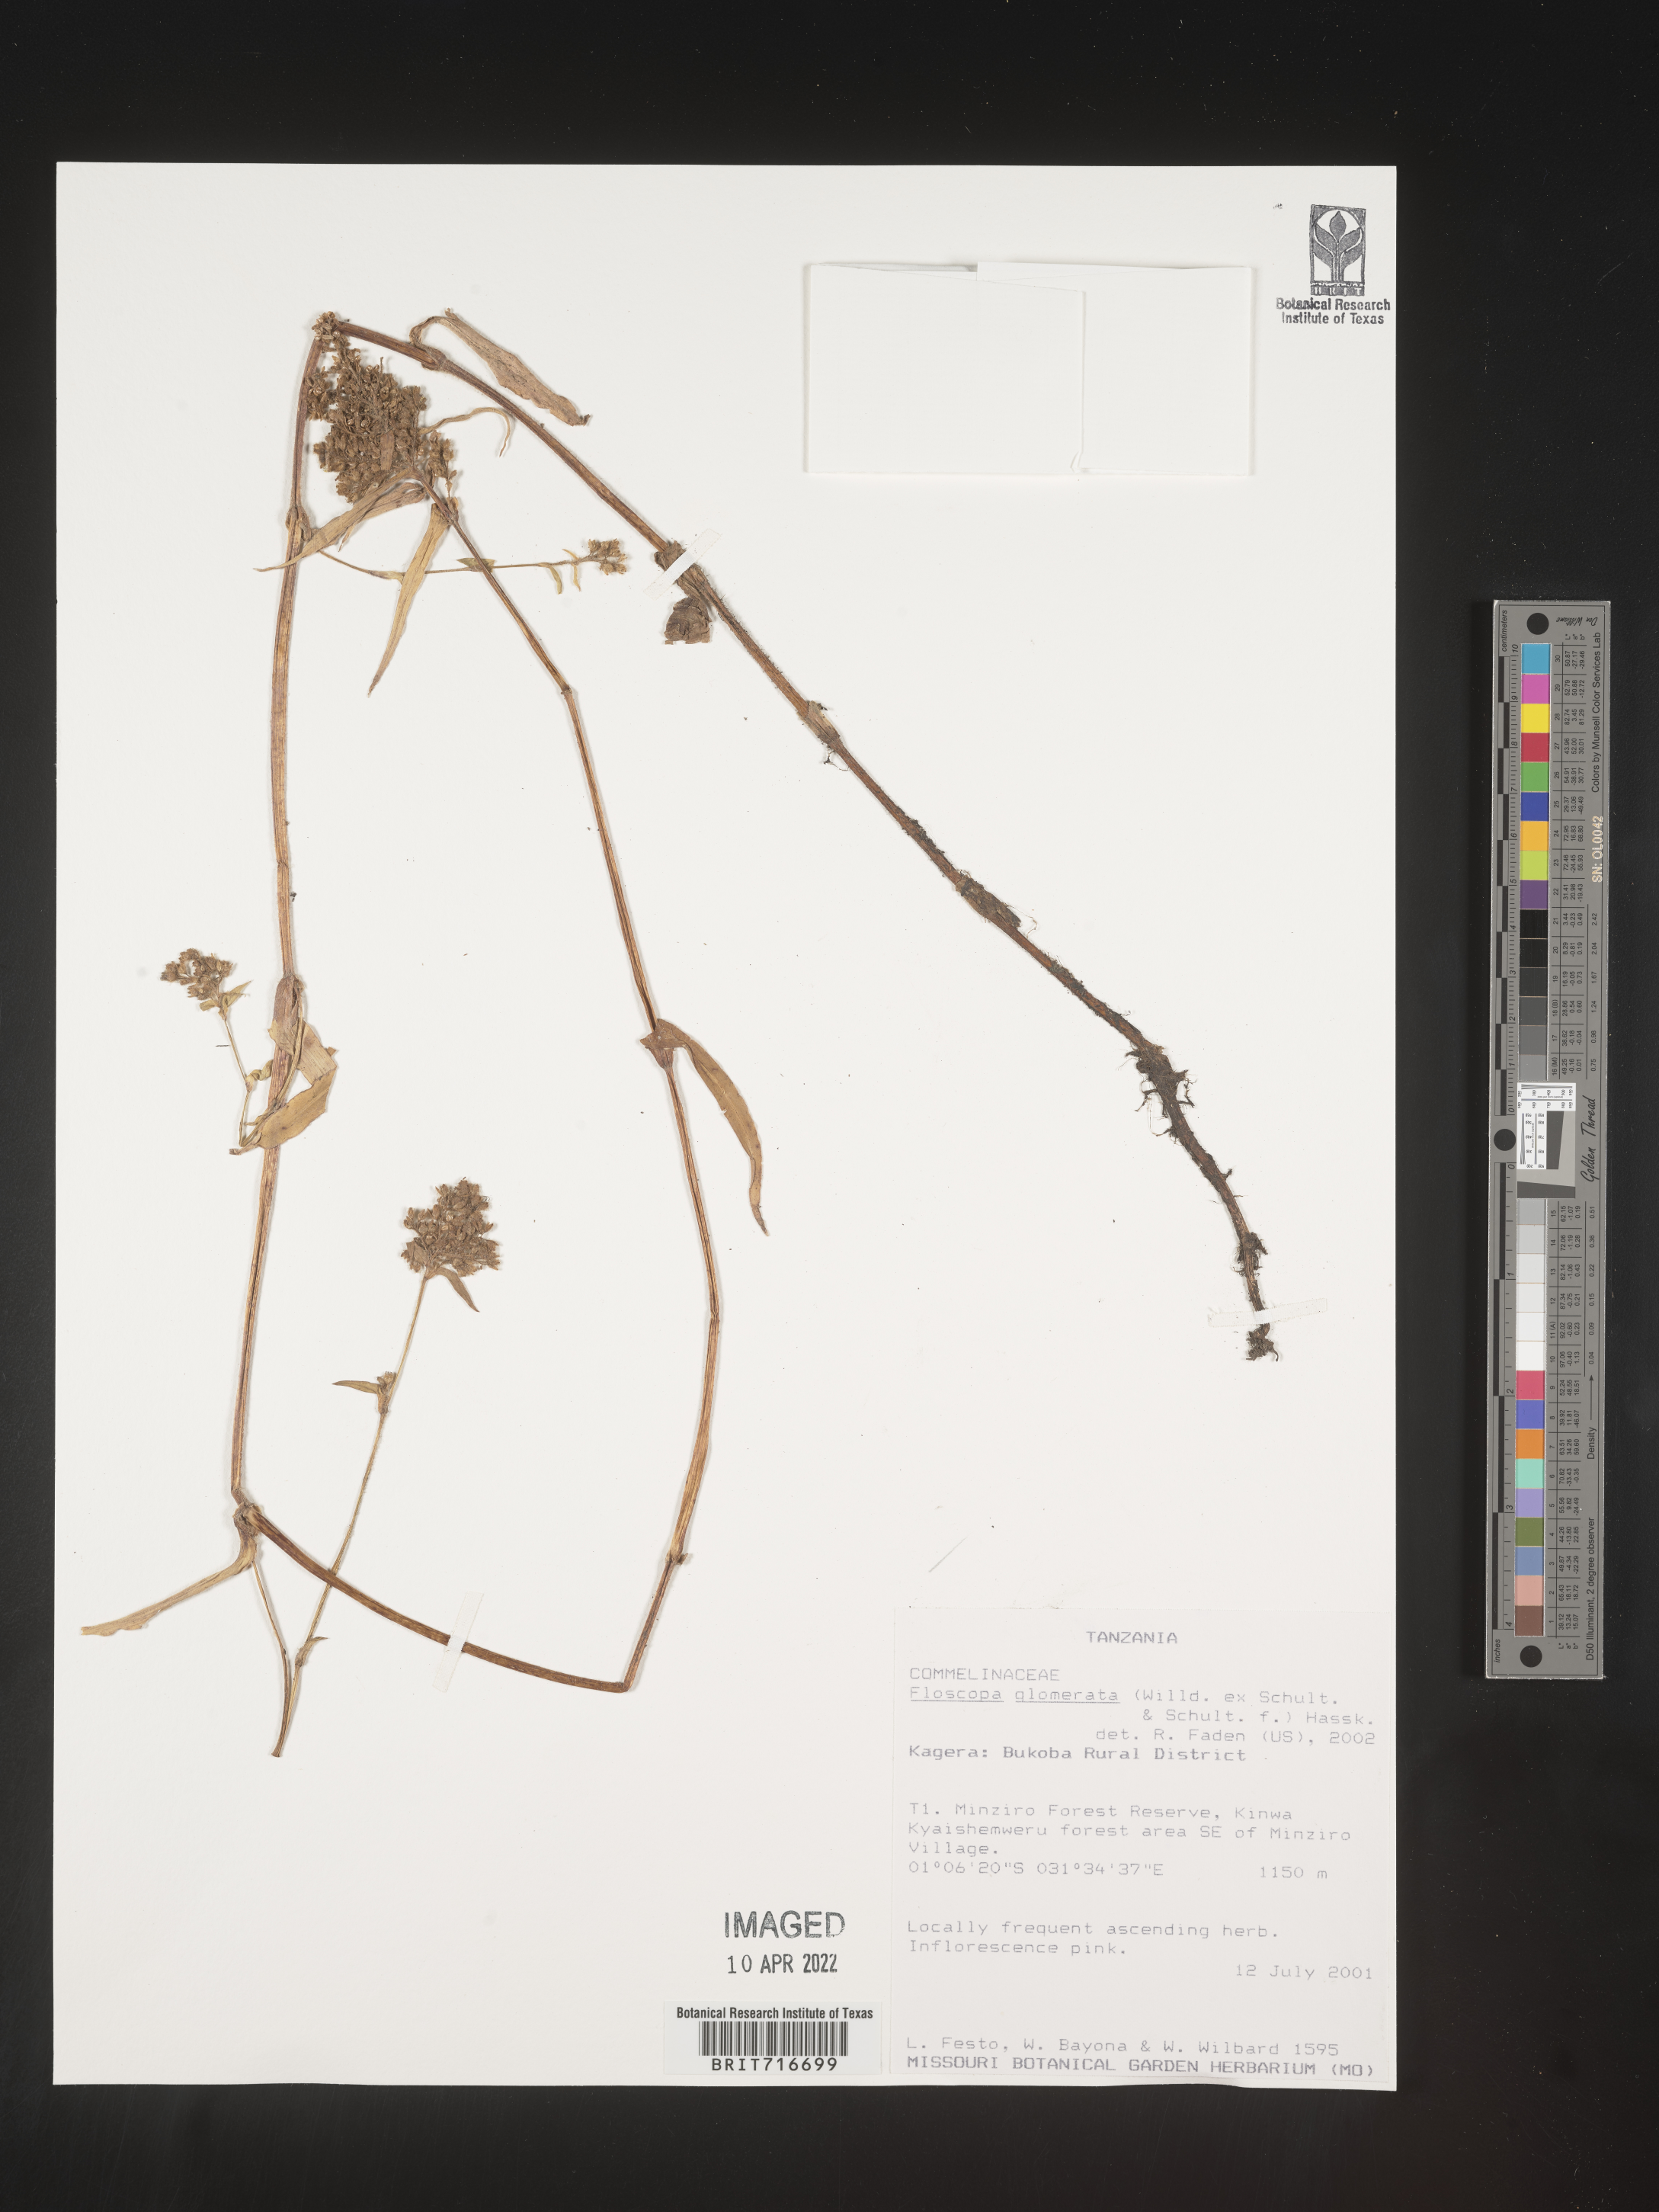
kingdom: Plantae
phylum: Tracheophyta
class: Liliopsida
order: Commelinales
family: Commelinaceae
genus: Floscopa
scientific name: Floscopa
